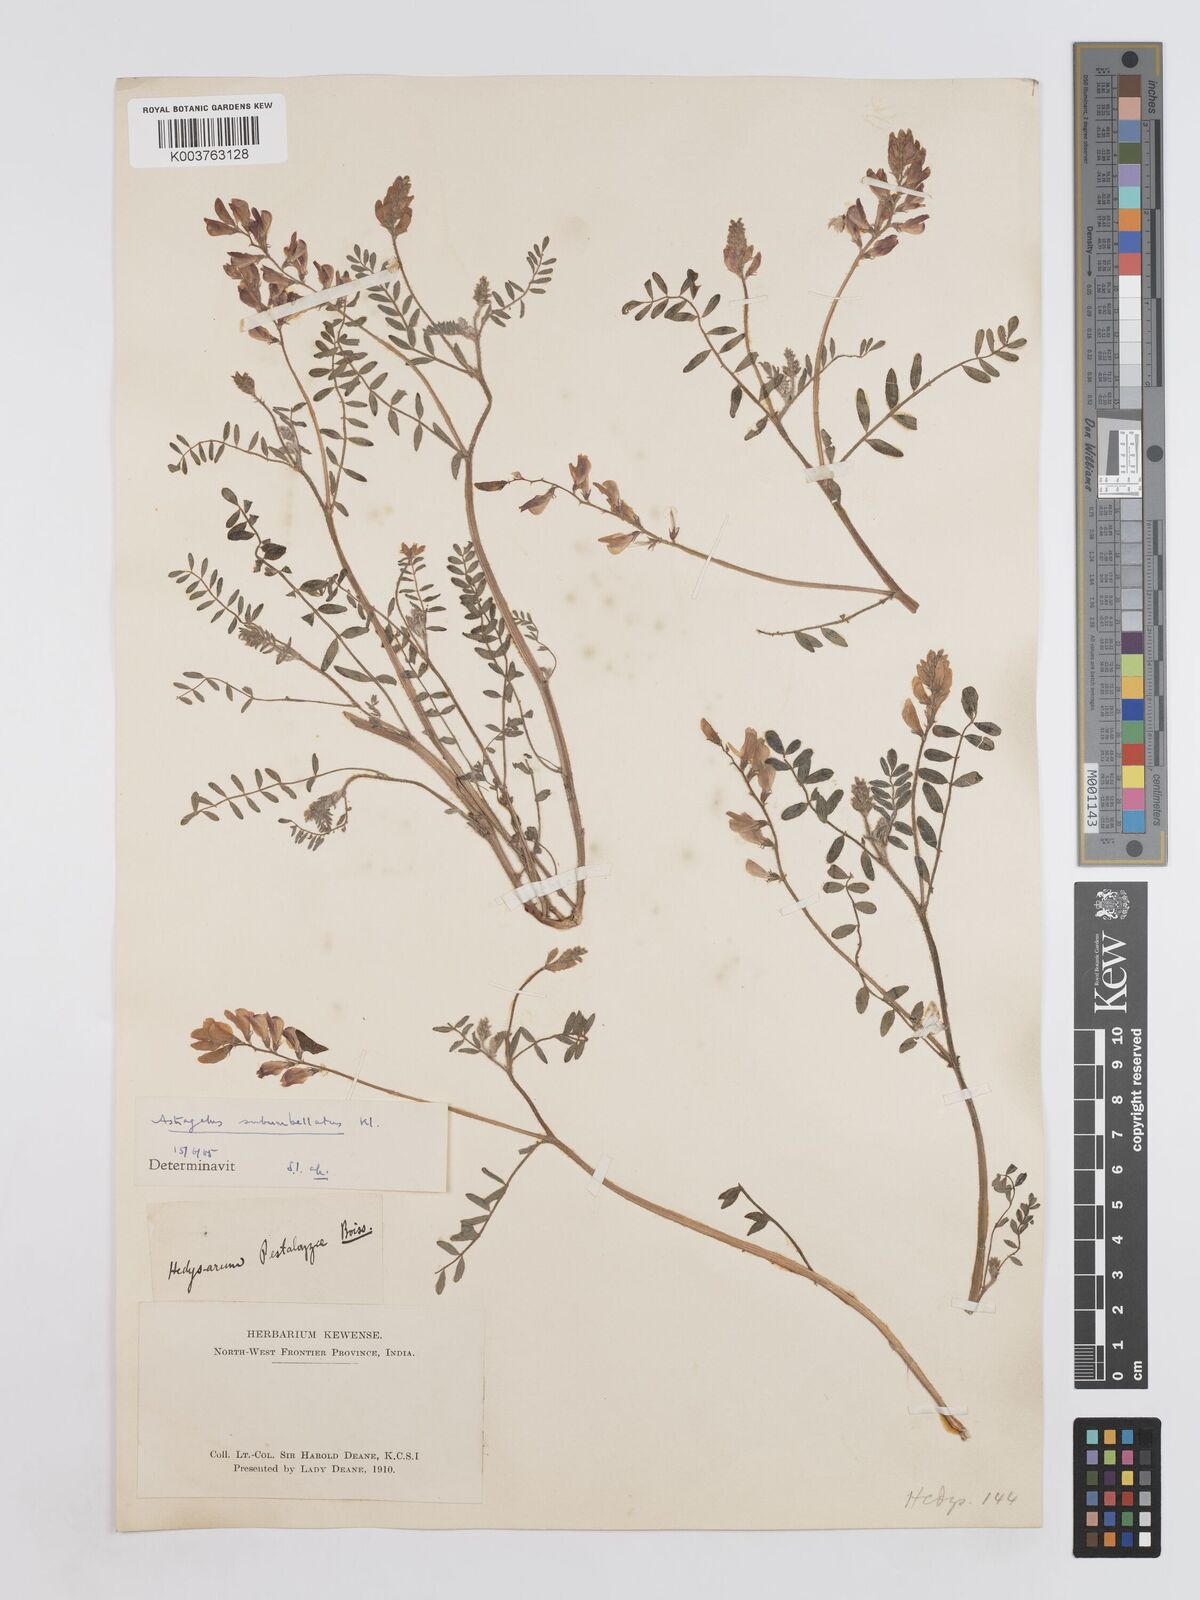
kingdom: Plantae
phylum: Tracheophyta
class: Magnoliopsida
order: Fabales
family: Fabaceae
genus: Hedysarum
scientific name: Hedysarum pestalozzae
